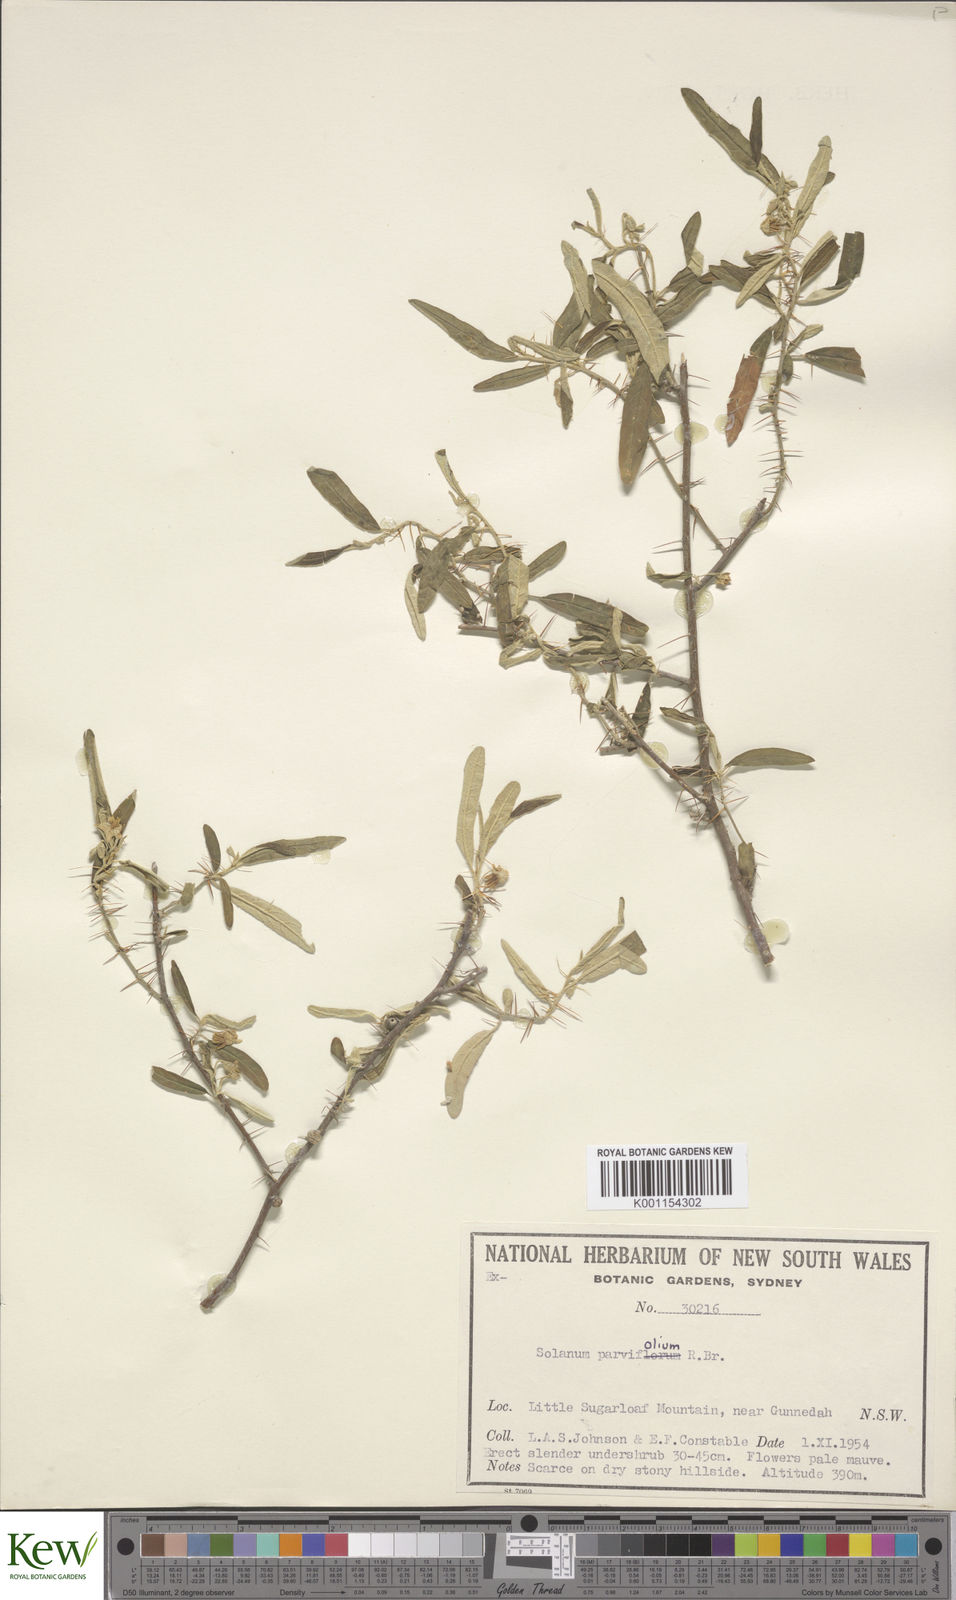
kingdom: Plantae
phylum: Tracheophyta
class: Magnoliopsida
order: Solanales
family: Solanaceae
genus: Solanum
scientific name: Solanum parvifolium
